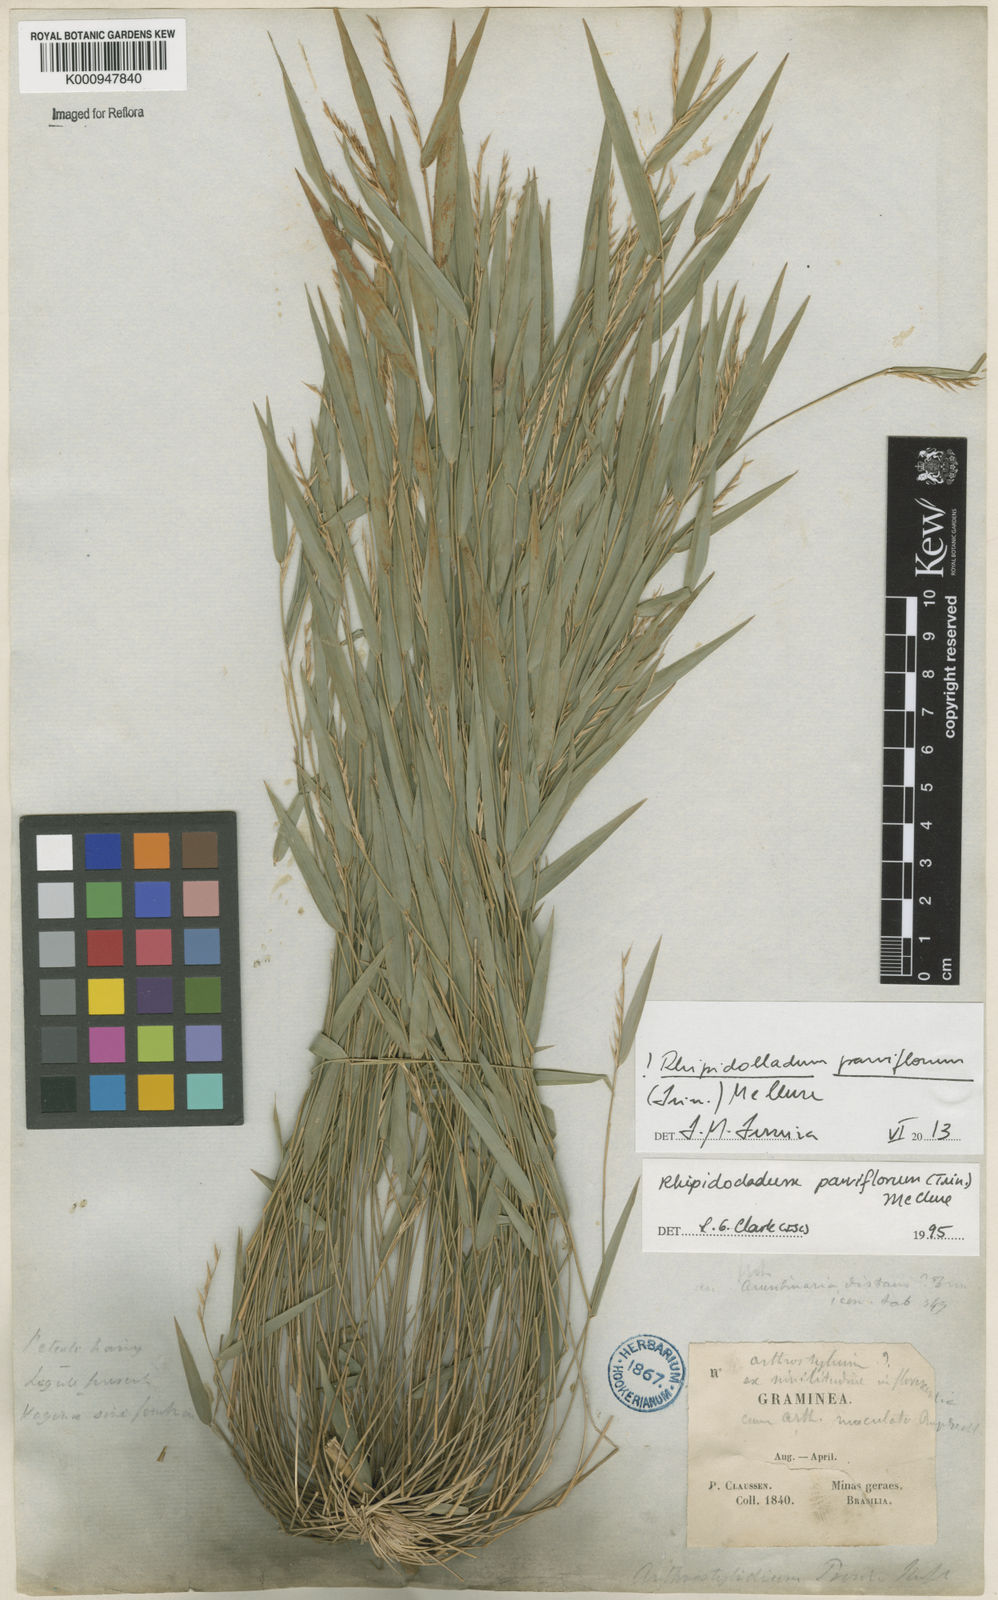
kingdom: Plantae
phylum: Tracheophyta
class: Liliopsida
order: Poales
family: Poaceae
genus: Rhipidocladum
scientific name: Rhipidocladum parviflorum
